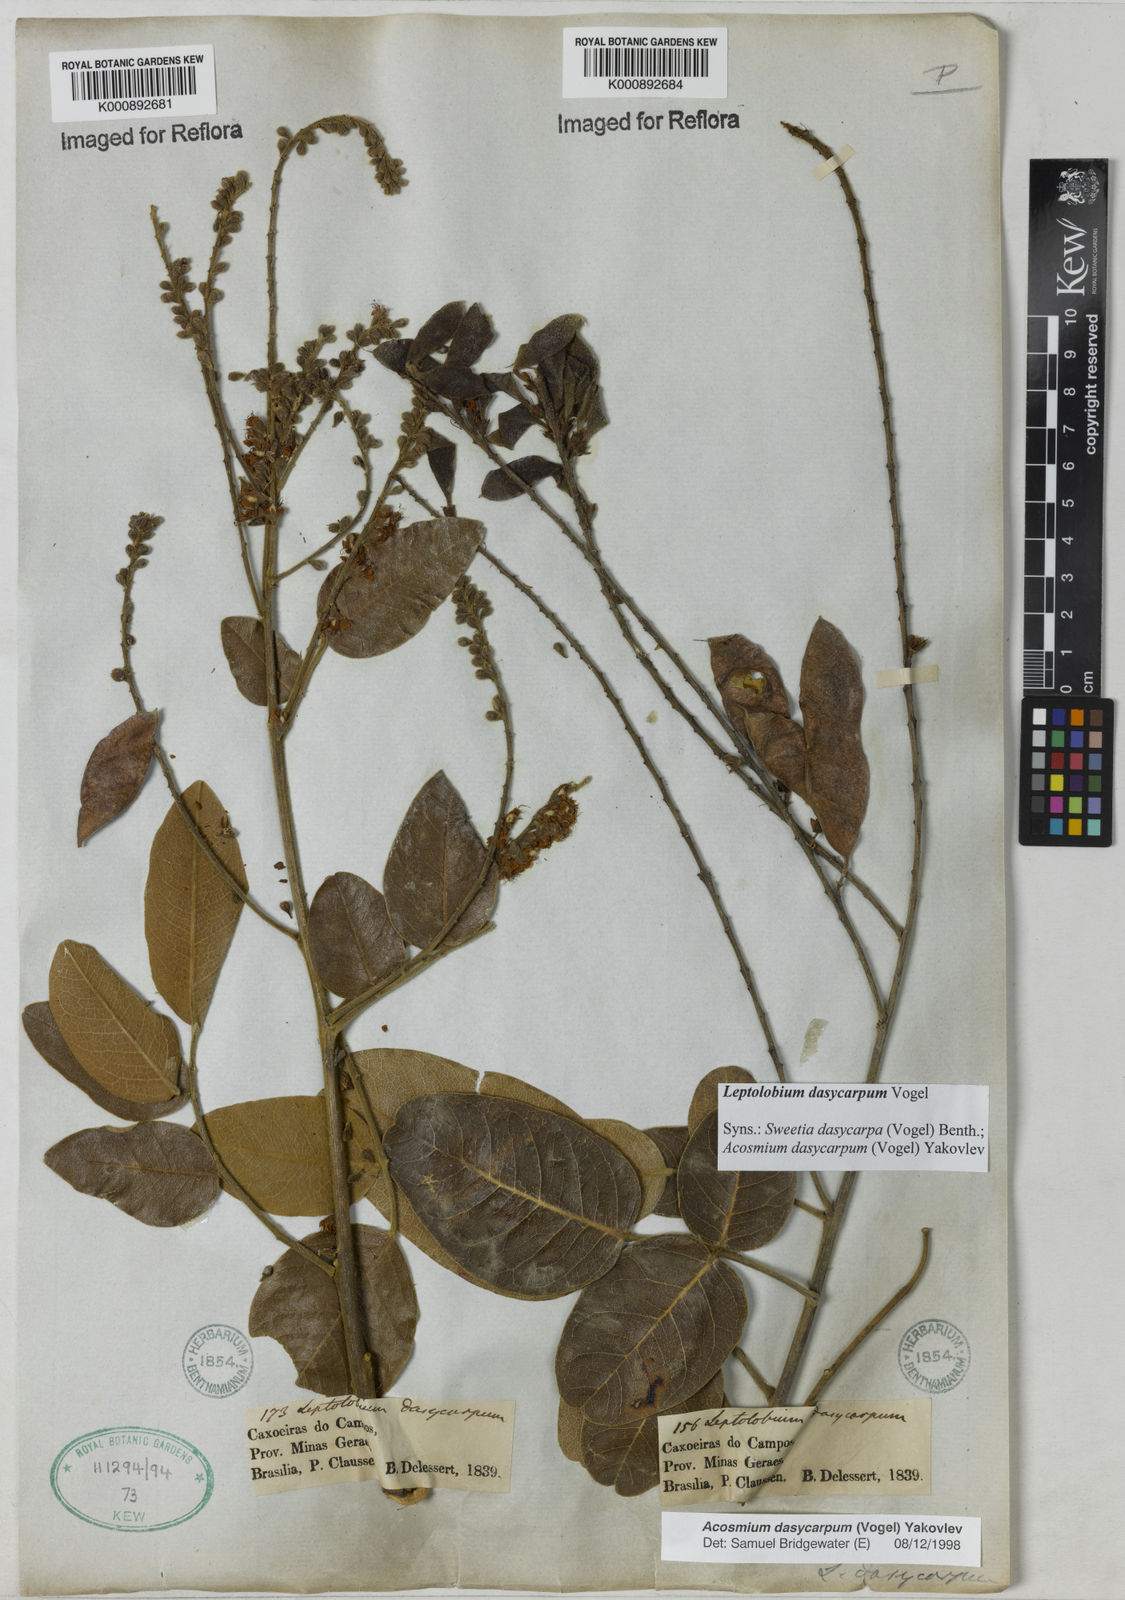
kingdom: Plantae
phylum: Tracheophyta
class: Magnoliopsida
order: Fabales
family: Fabaceae
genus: Leptolobium
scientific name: Leptolobium dasycarpum
